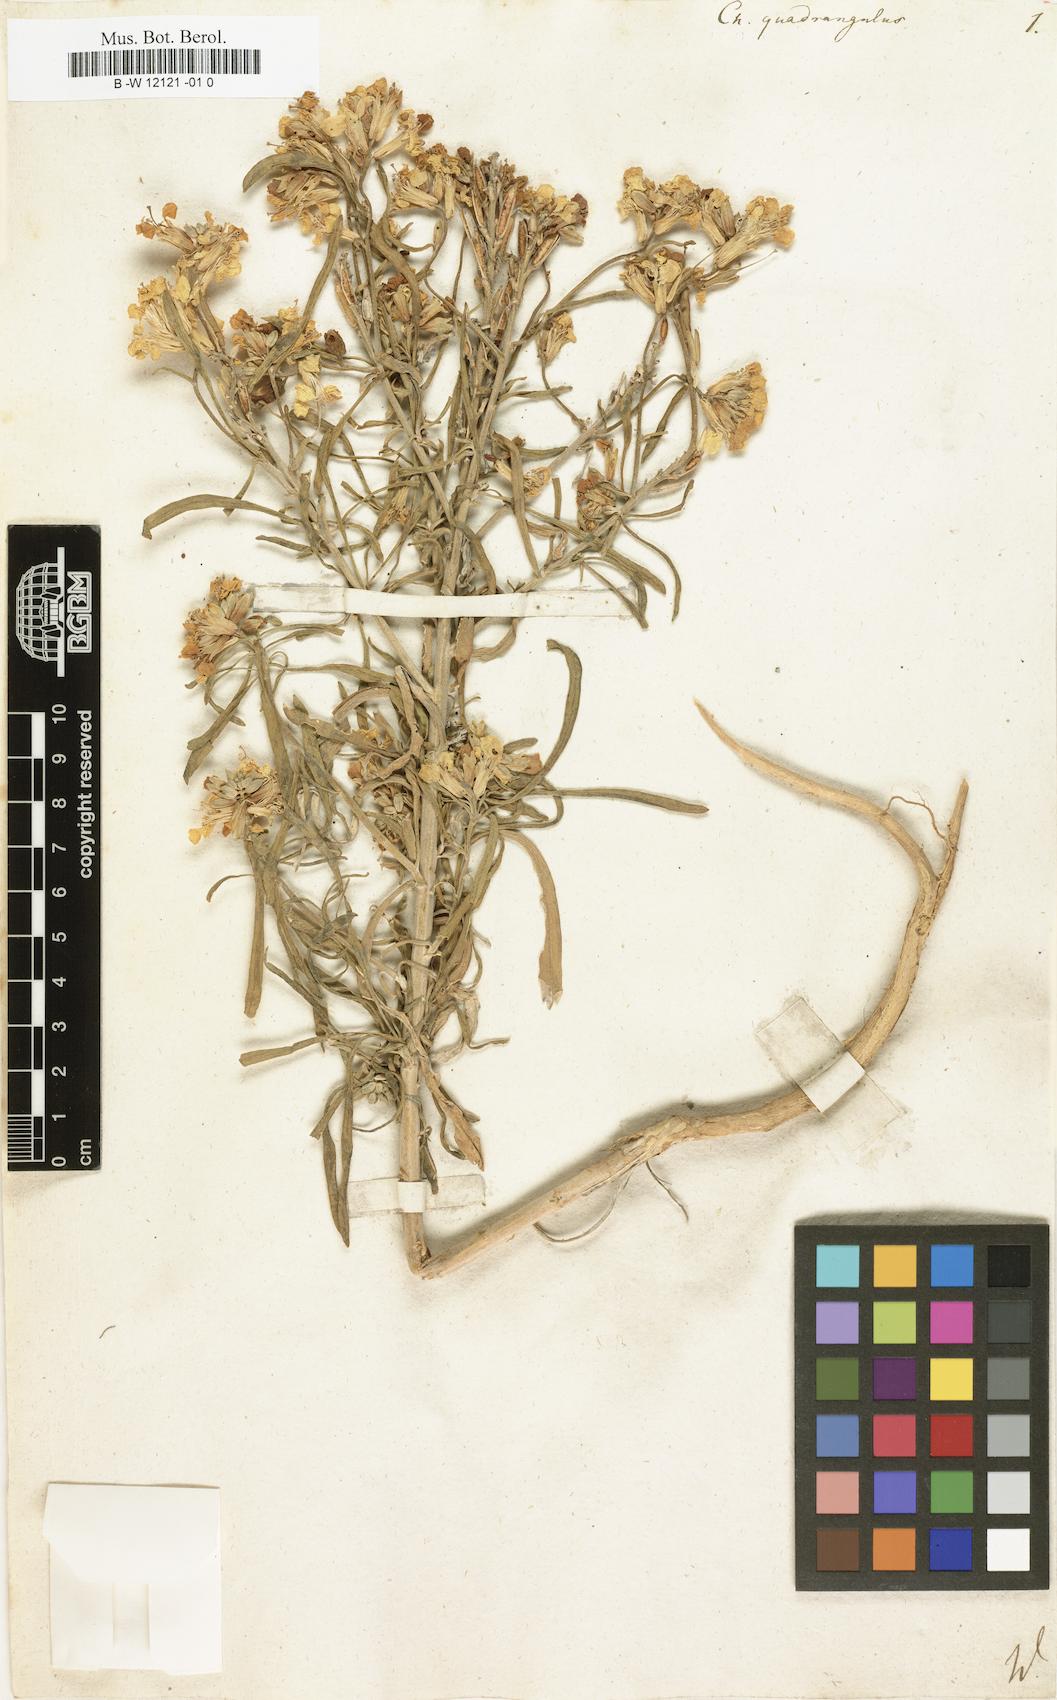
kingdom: Plantae
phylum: Tracheophyta
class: Magnoliopsida
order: Brassicales
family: Brassicaceae
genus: Erysimum
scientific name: Erysimum
